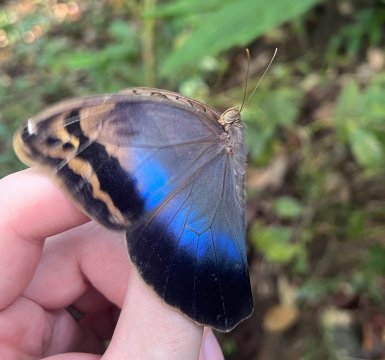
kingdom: Animalia
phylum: Arthropoda
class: Insecta
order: Lepidoptera
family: Nymphalidae
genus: Eryphanis
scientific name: Eryphanis lycomedon
